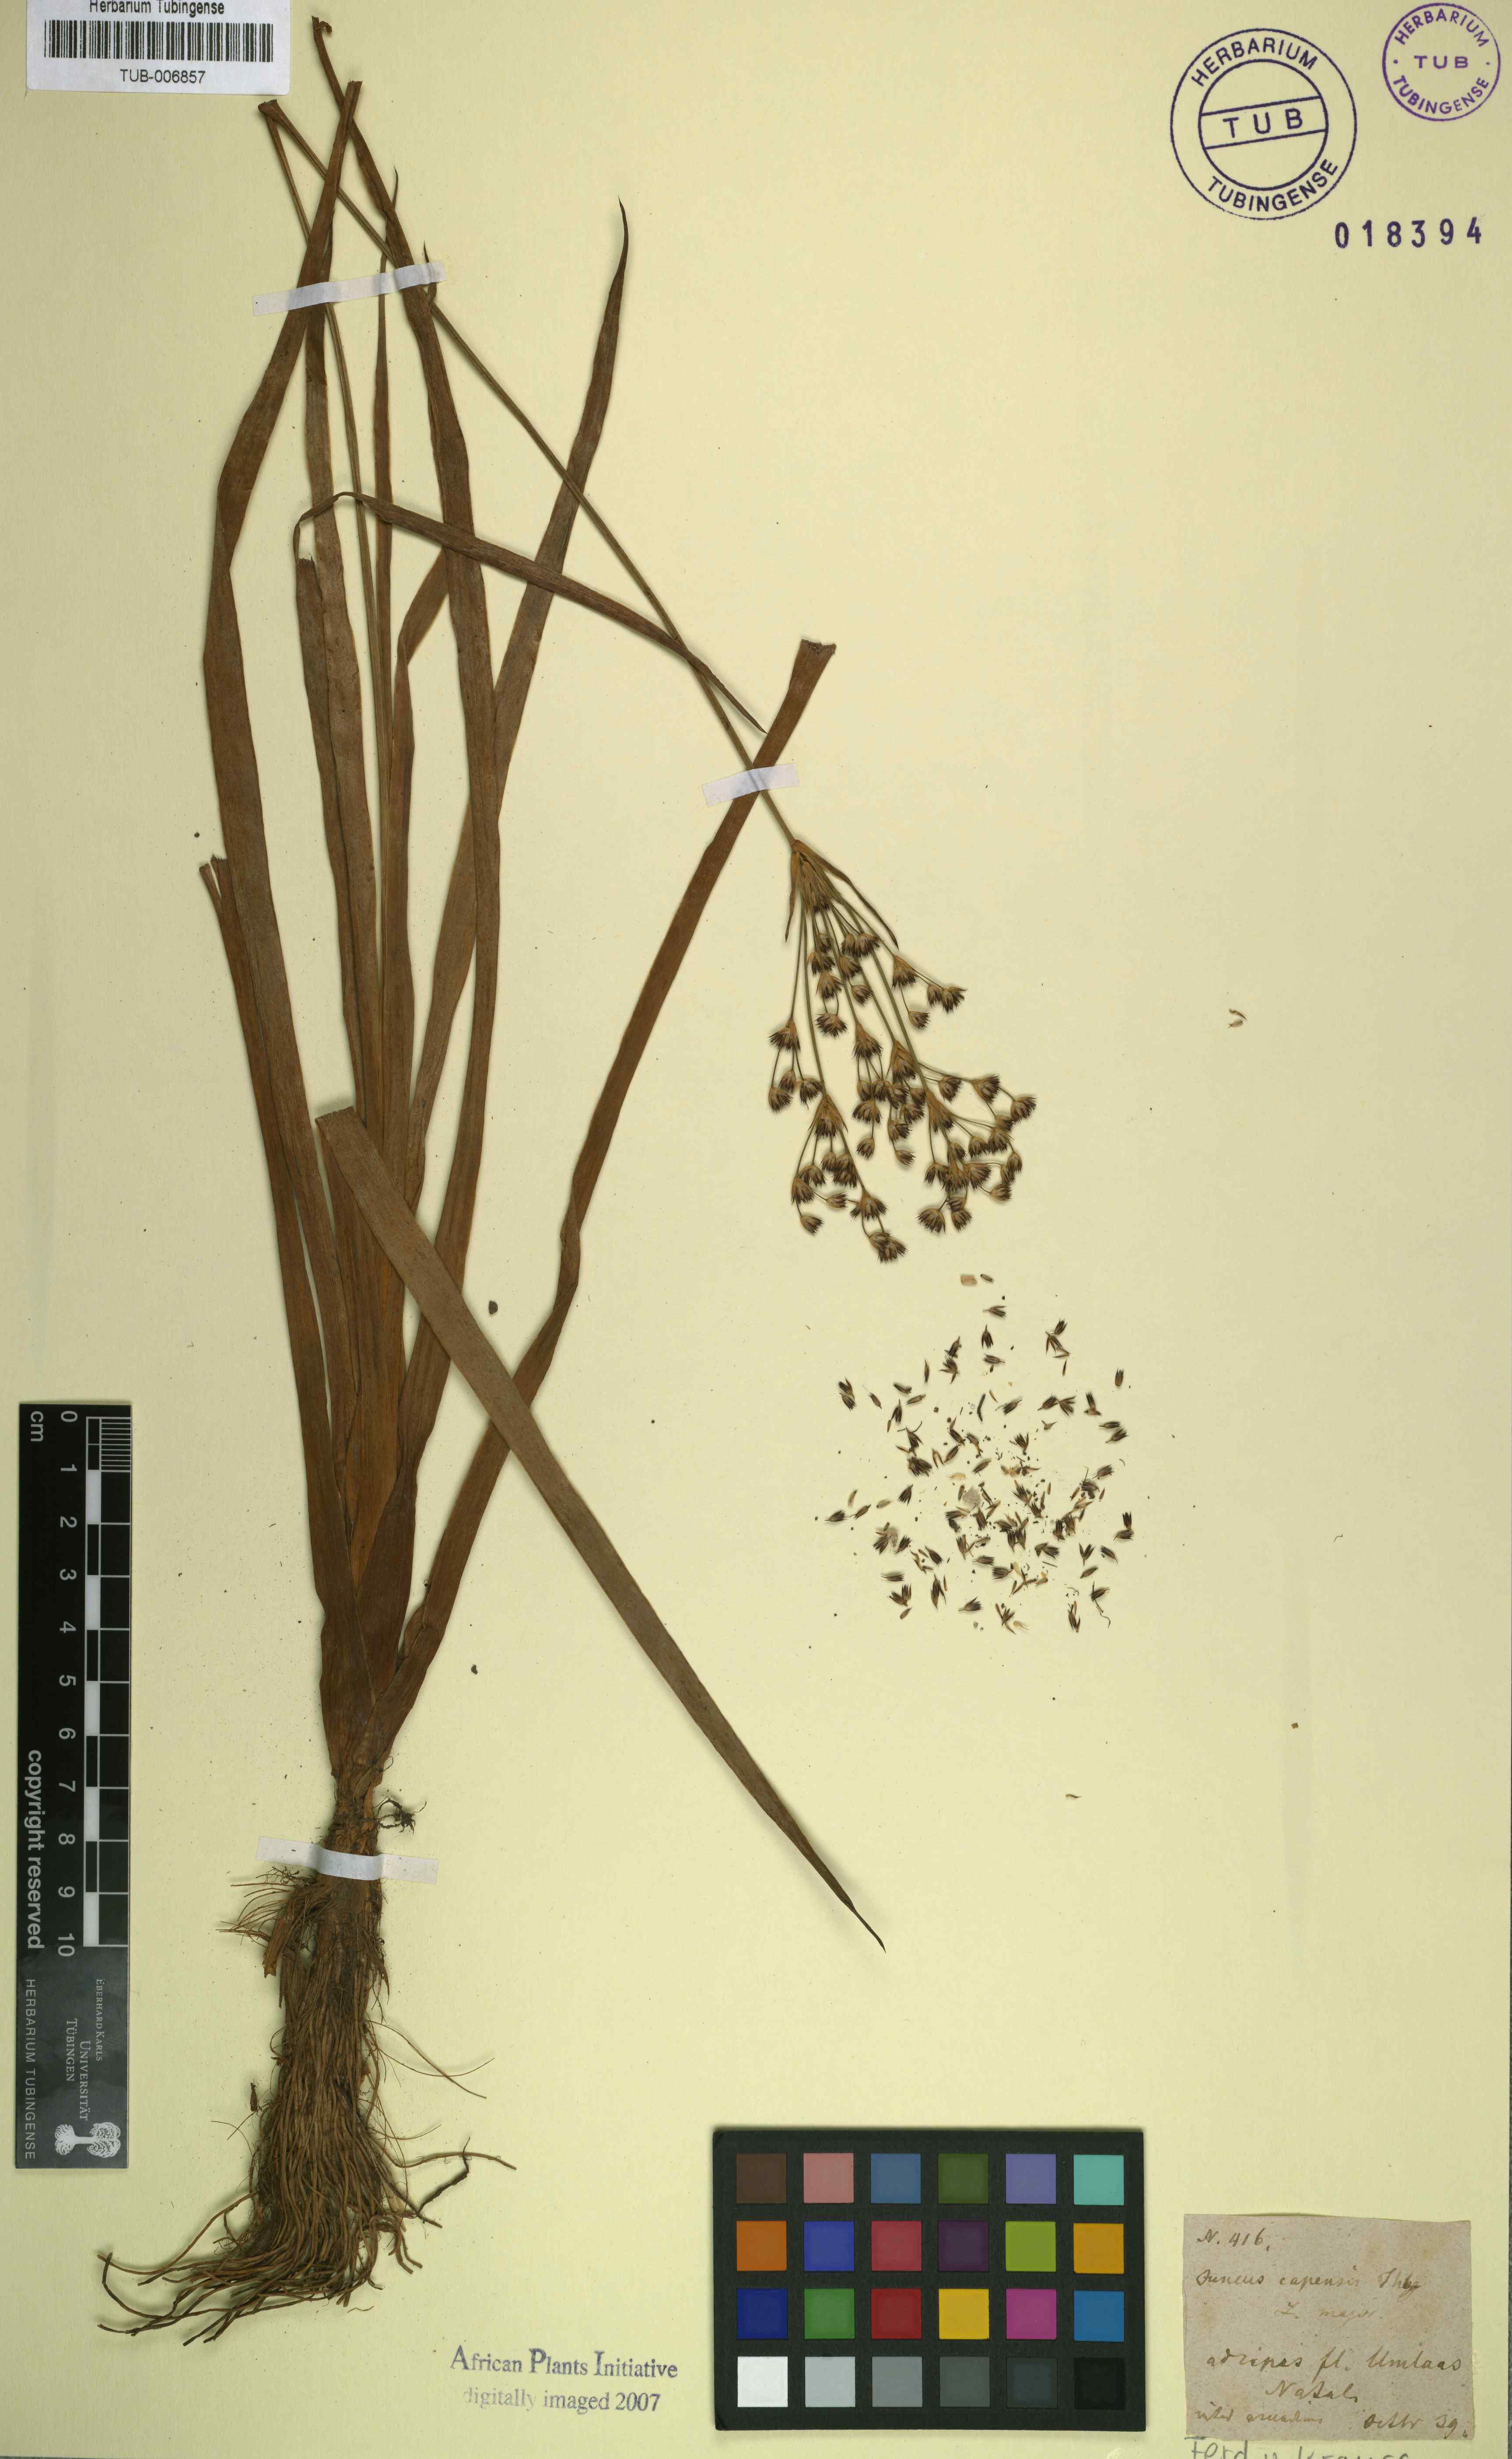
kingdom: Plantae
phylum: Tracheophyta
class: Liliopsida
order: Poales
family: Juncaceae
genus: Juncus
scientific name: Juncus capensis
